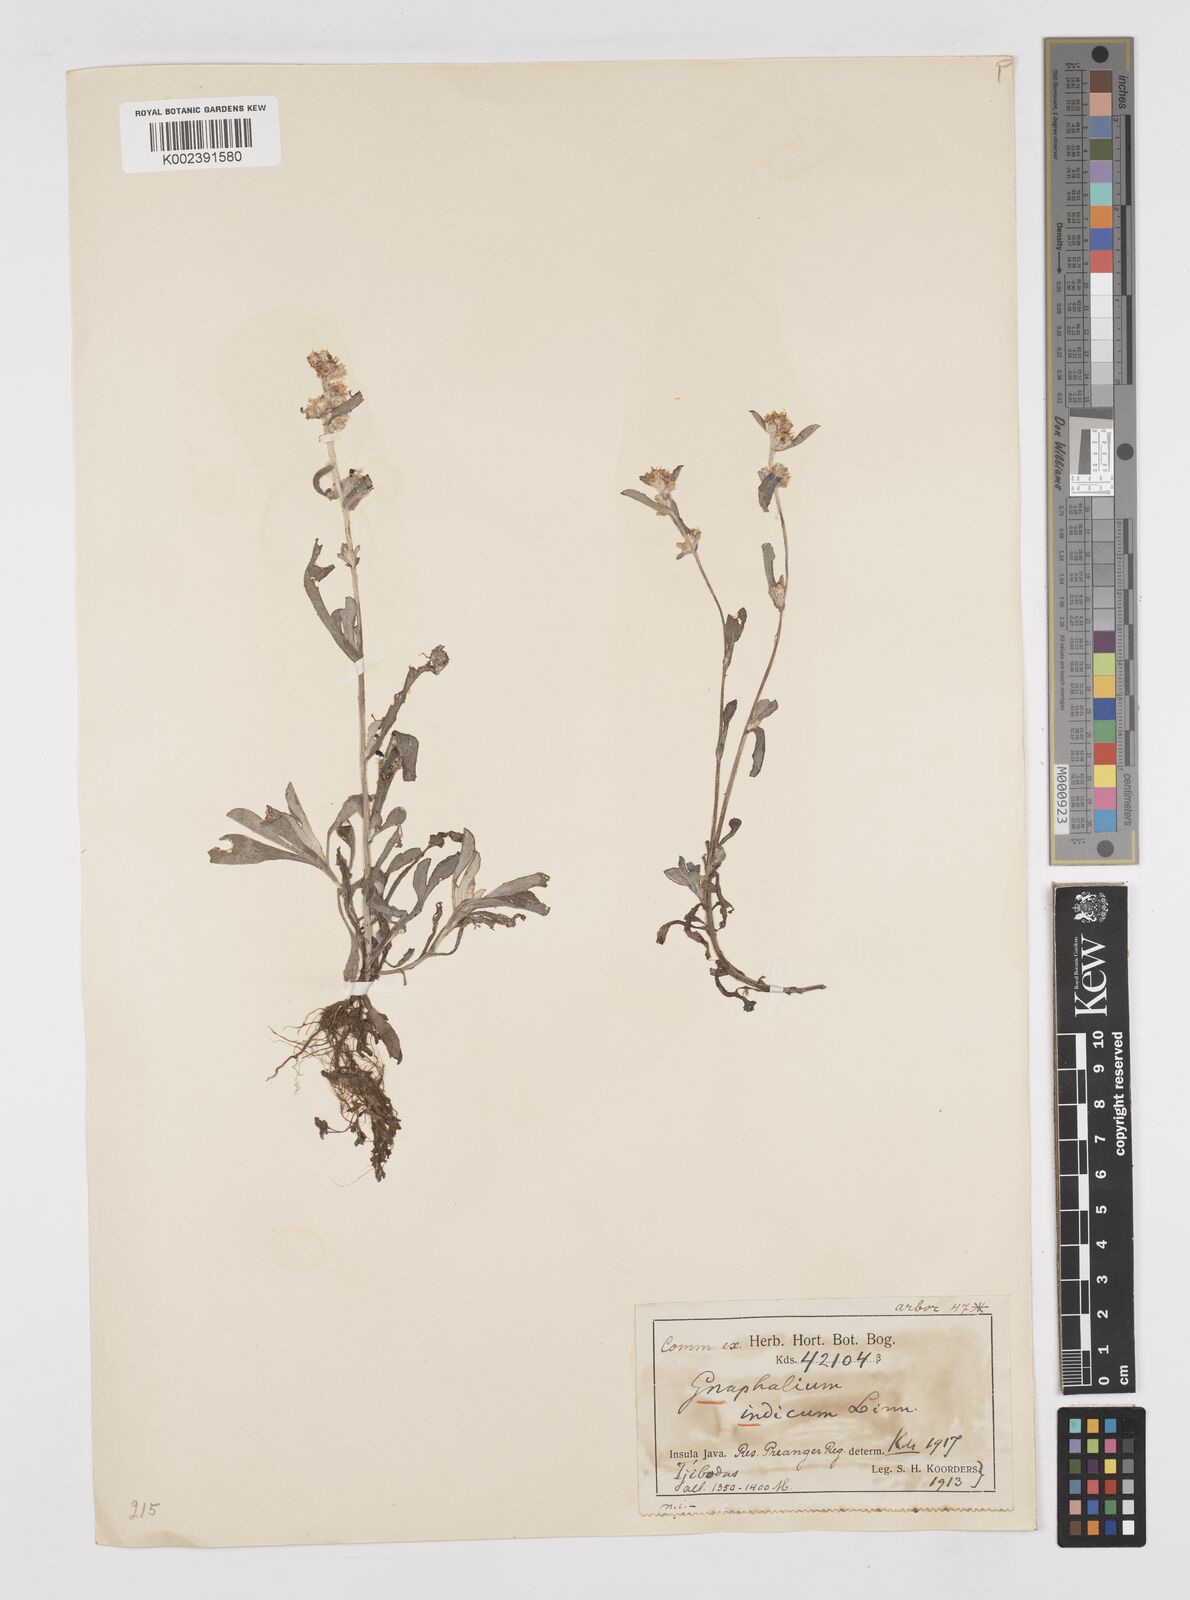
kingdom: Plantae
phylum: Tracheophyta
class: Magnoliopsida
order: Asterales
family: Asteraceae
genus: Helichrysum
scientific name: Helichrysum indicum
